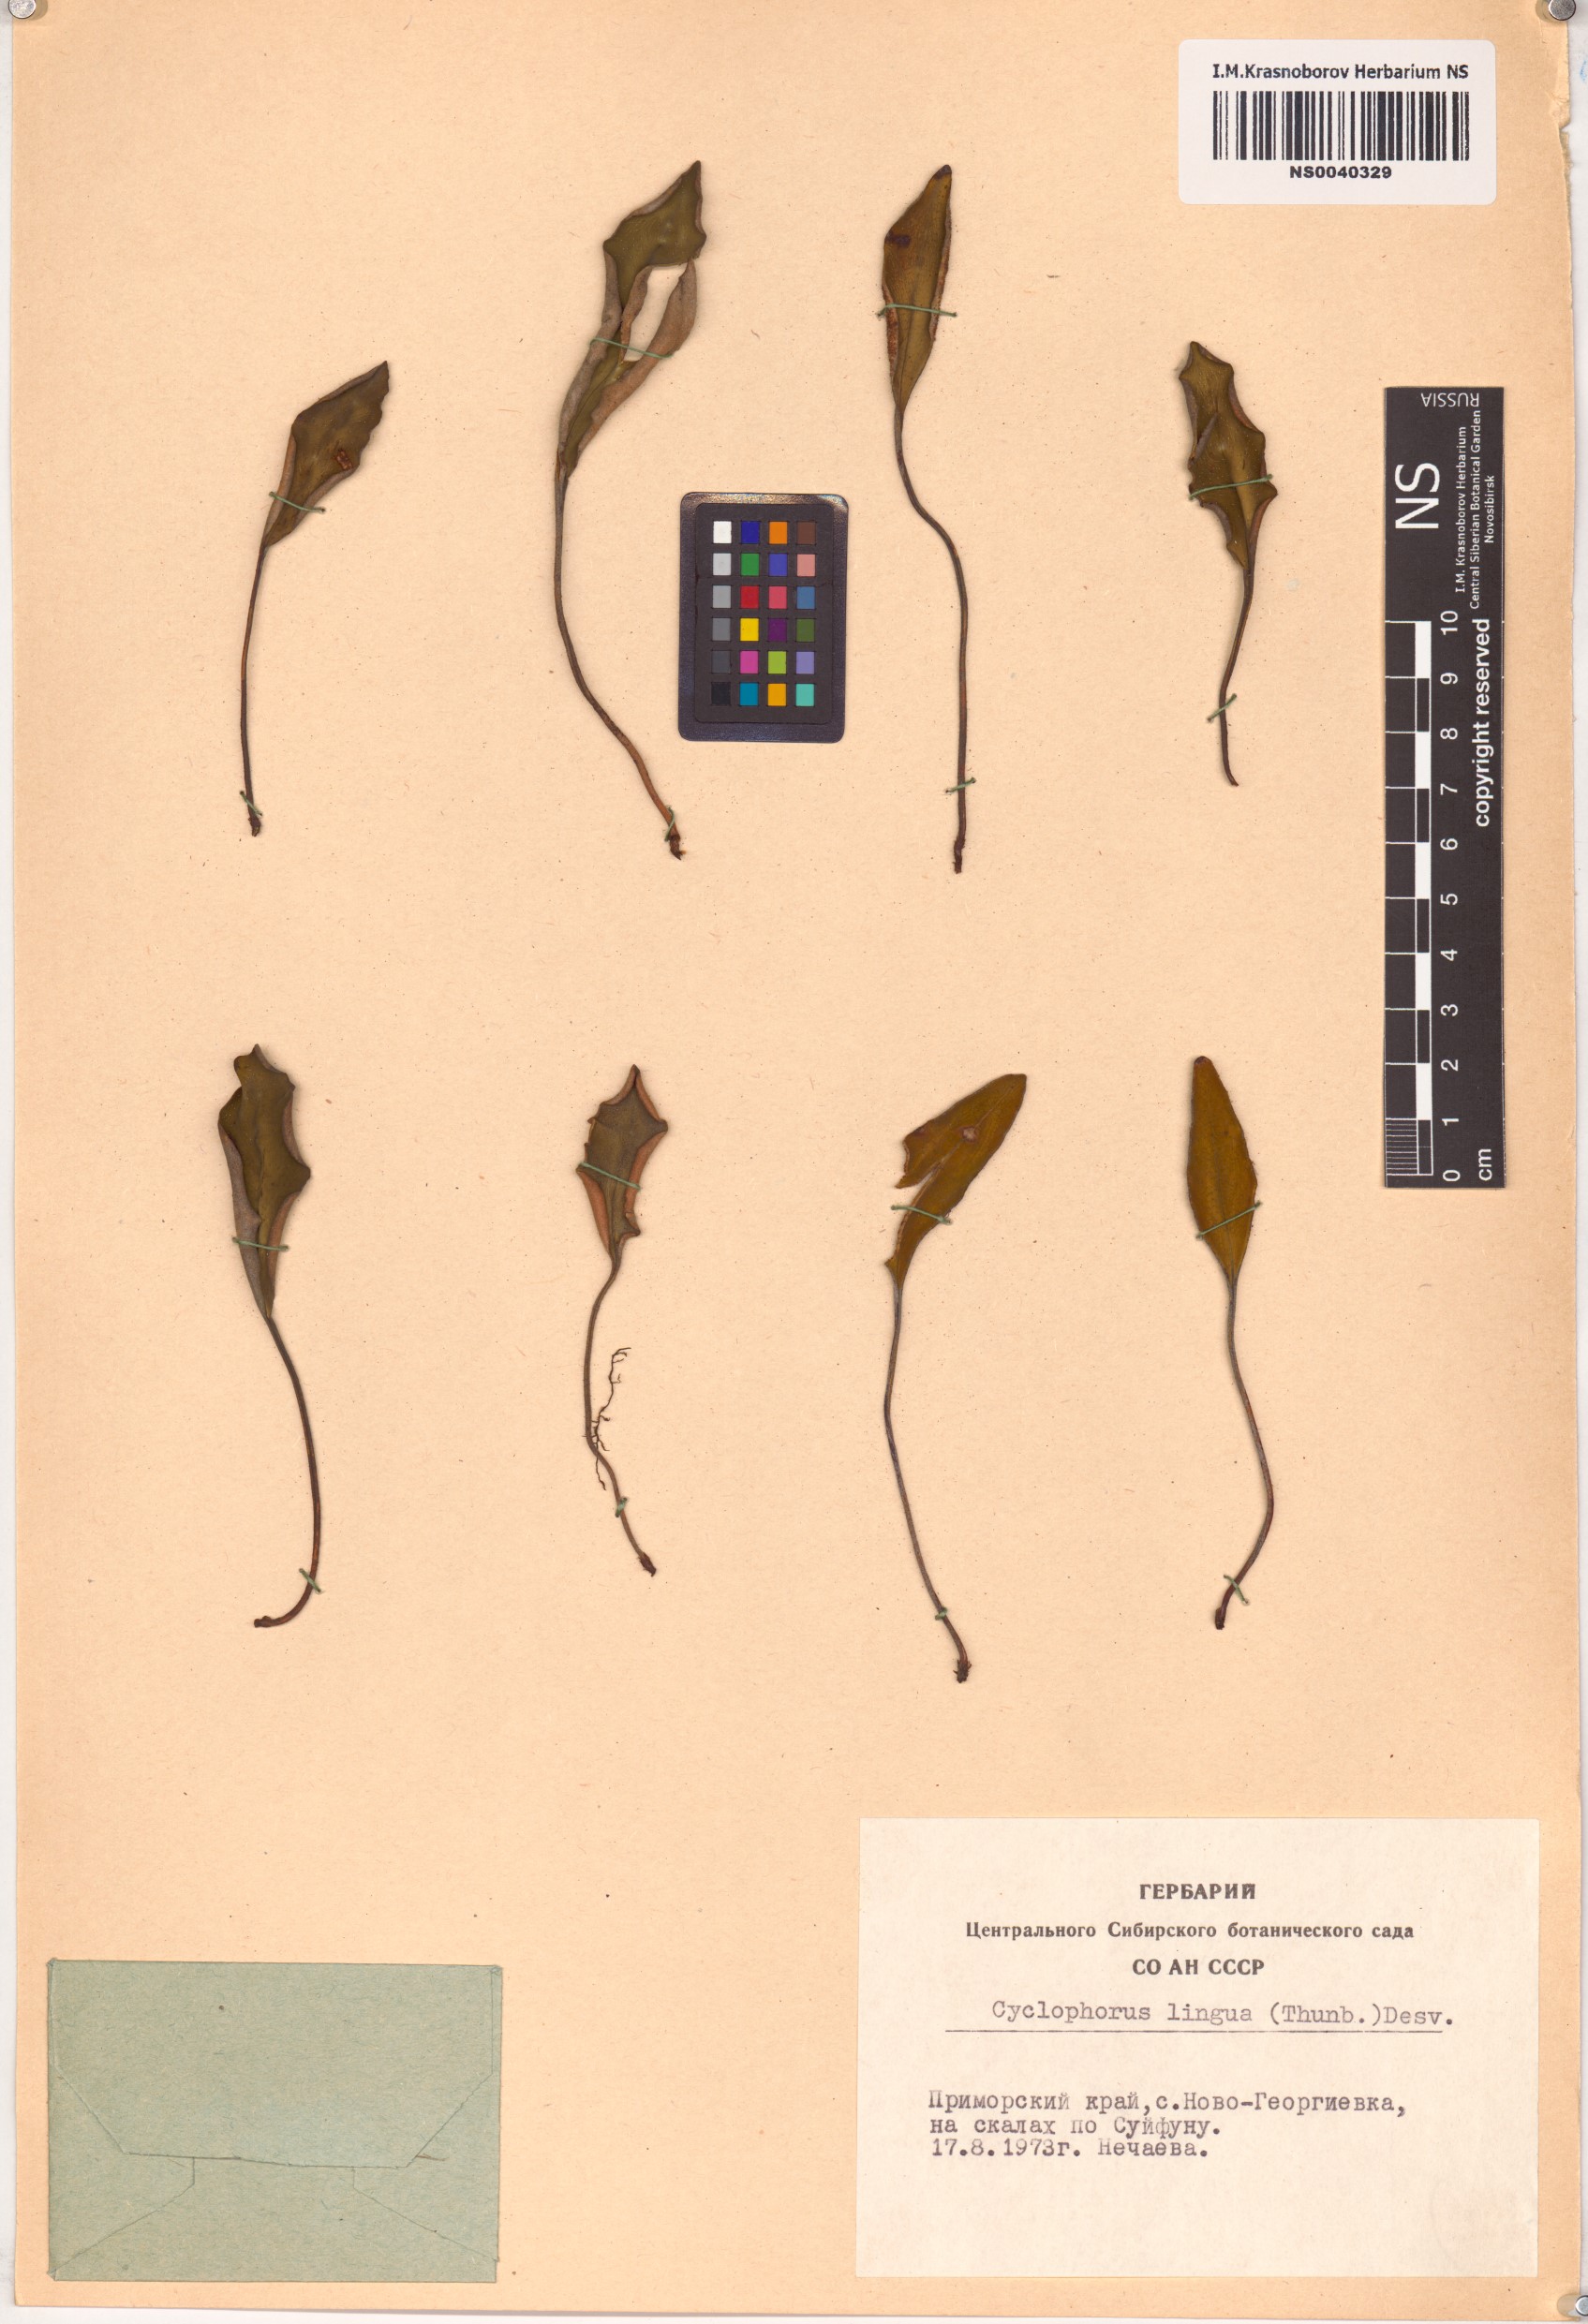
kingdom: Plantae
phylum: Tracheophyta
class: Polypodiopsida
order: Polypodiales
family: Polypodiaceae
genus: Pyrrosia
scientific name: Pyrrosia lingua
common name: Felt fern
